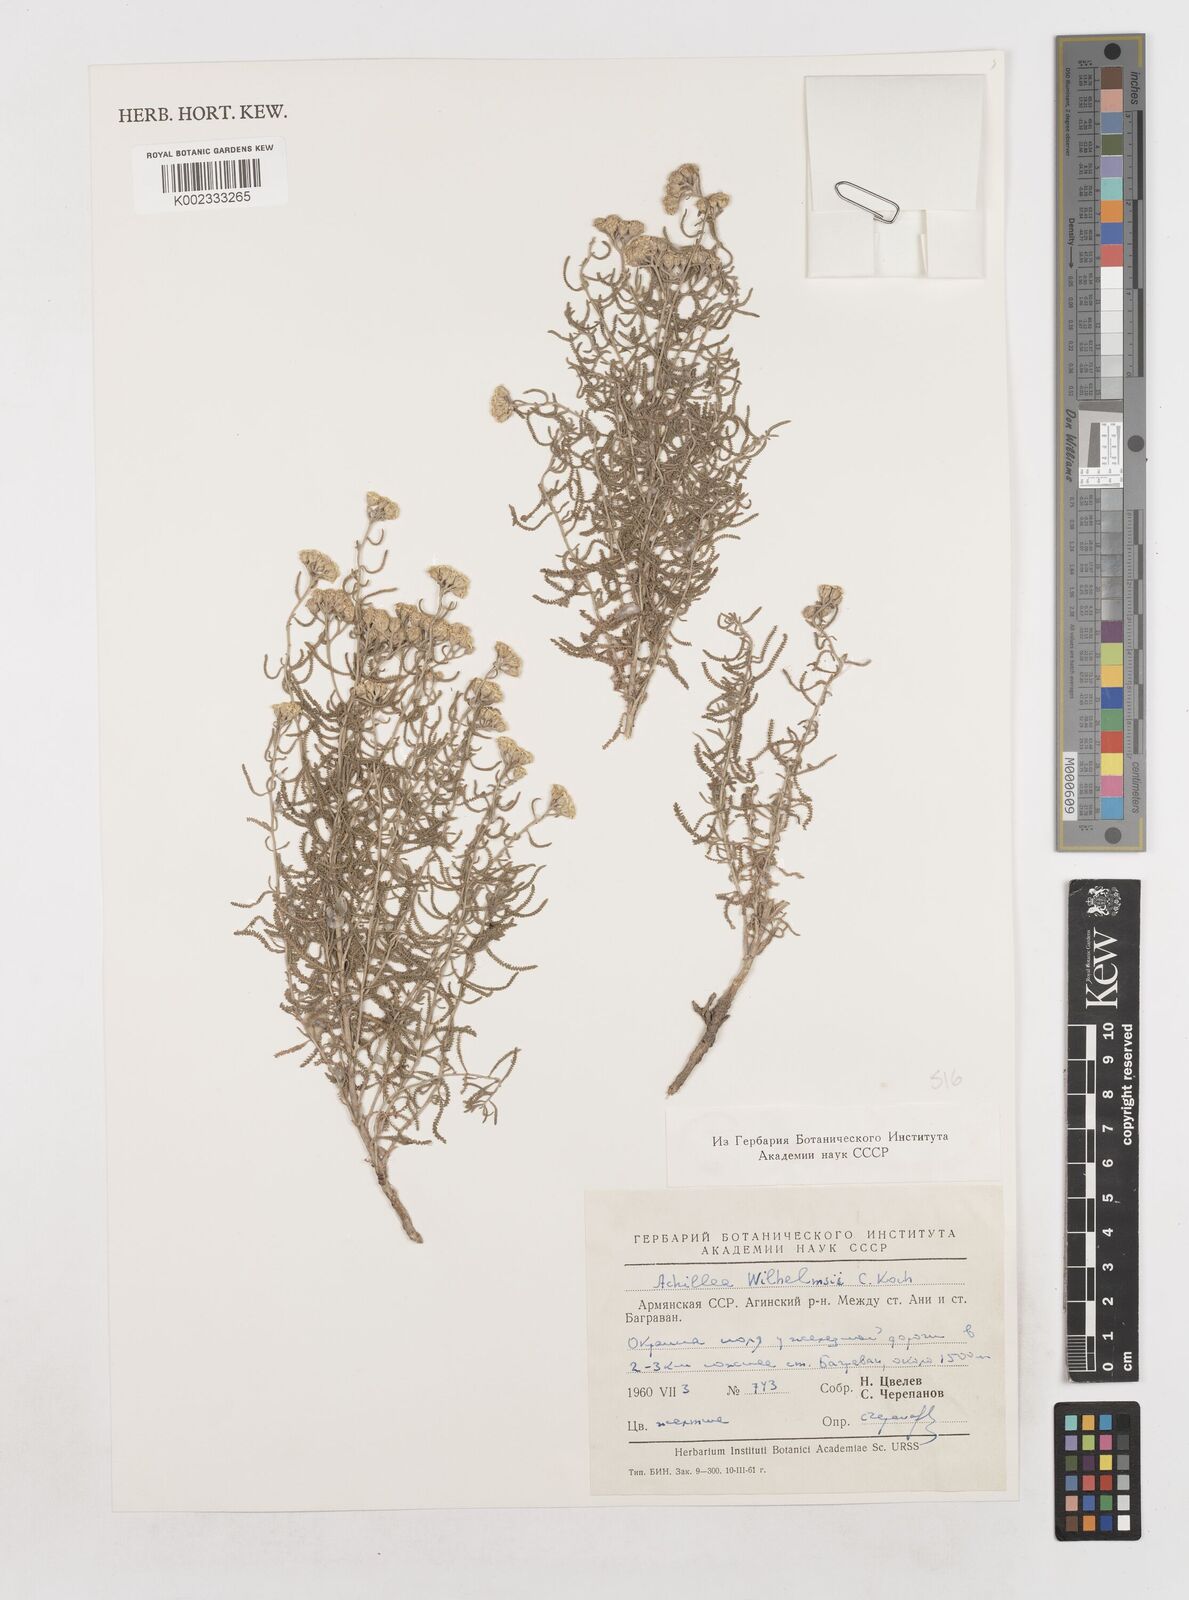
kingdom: Plantae
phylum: Tracheophyta
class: Magnoliopsida
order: Asterales
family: Asteraceae
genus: Achillea
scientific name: Achillea tenuifolia
